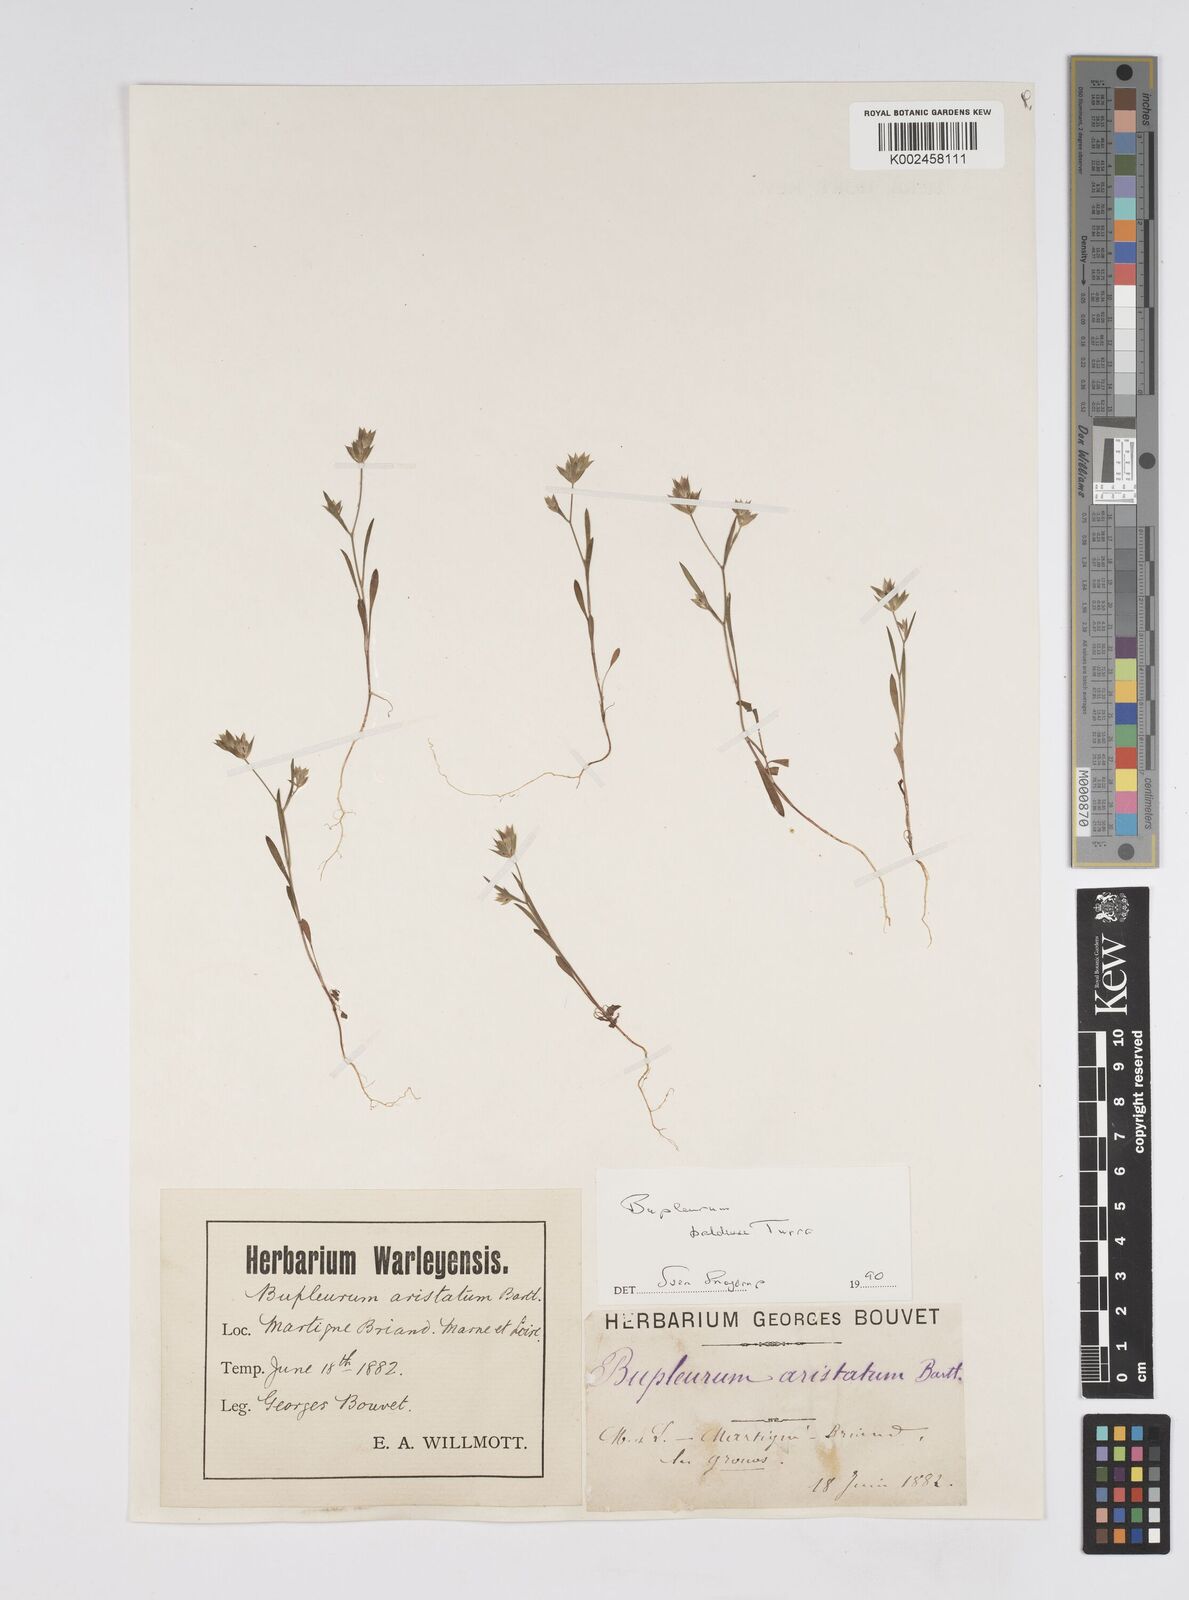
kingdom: Plantae
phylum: Tracheophyta
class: Magnoliopsida
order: Apiales
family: Apiaceae
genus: Bupleurum
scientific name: Bupleurum baldense
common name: Small hare's-ear
